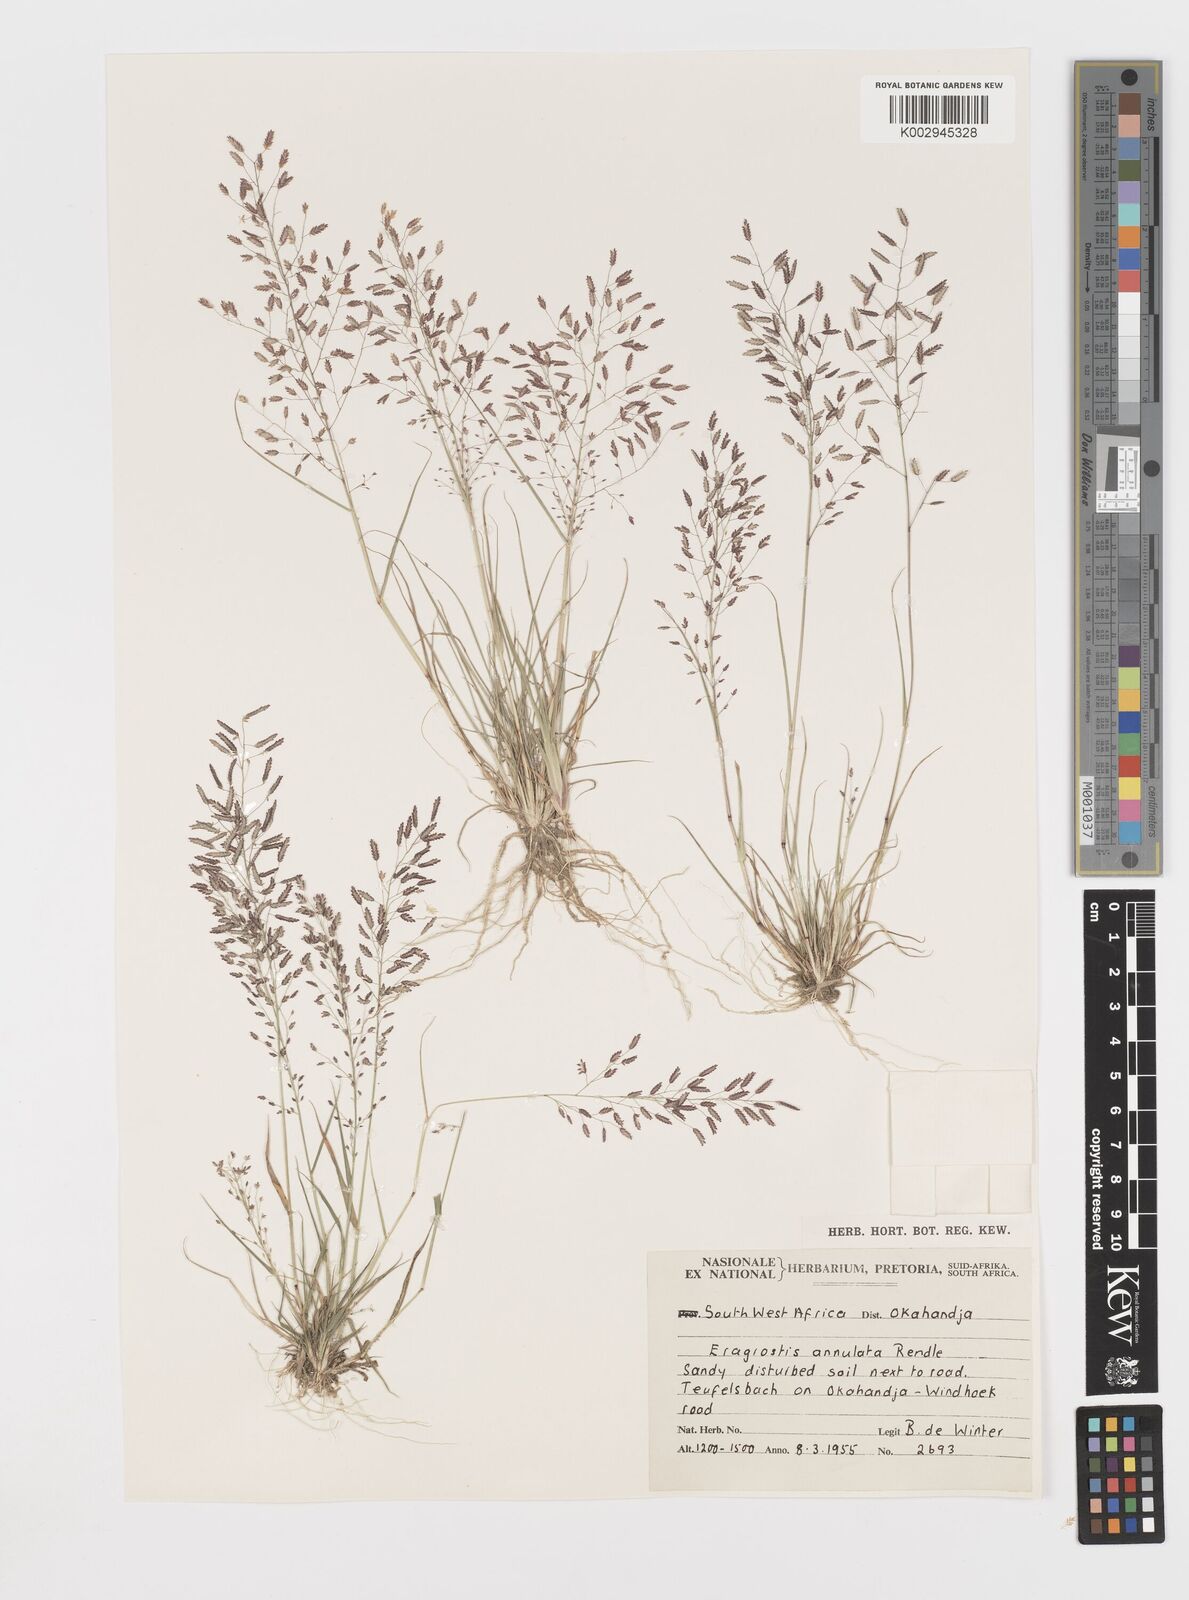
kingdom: Plantae
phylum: Tracheophyta
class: Liliopsida
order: Poales
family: Poaceae
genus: Eragrostis
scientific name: Eragrostis annulata
